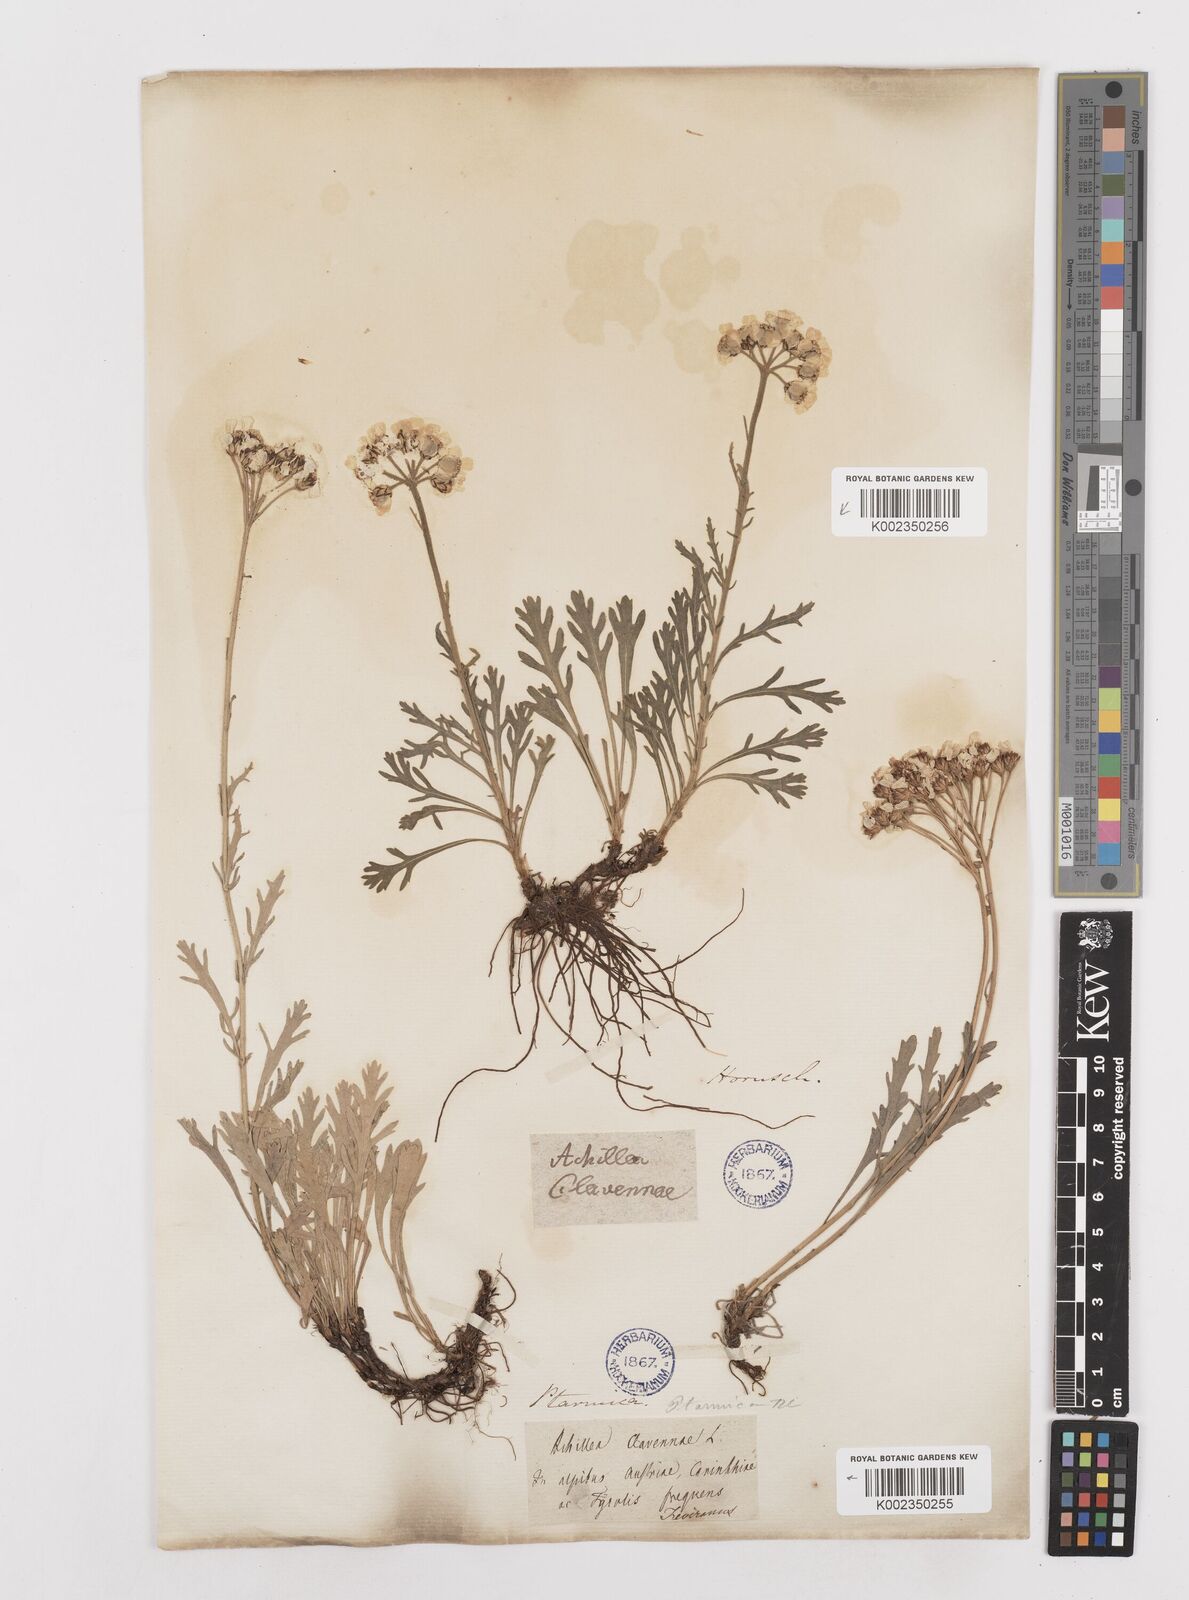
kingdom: Plantae
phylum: Tracheophyta
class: Magnoliopsida
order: Asterales
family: Asteraceae
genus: Achillea
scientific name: Achillea clavennae
